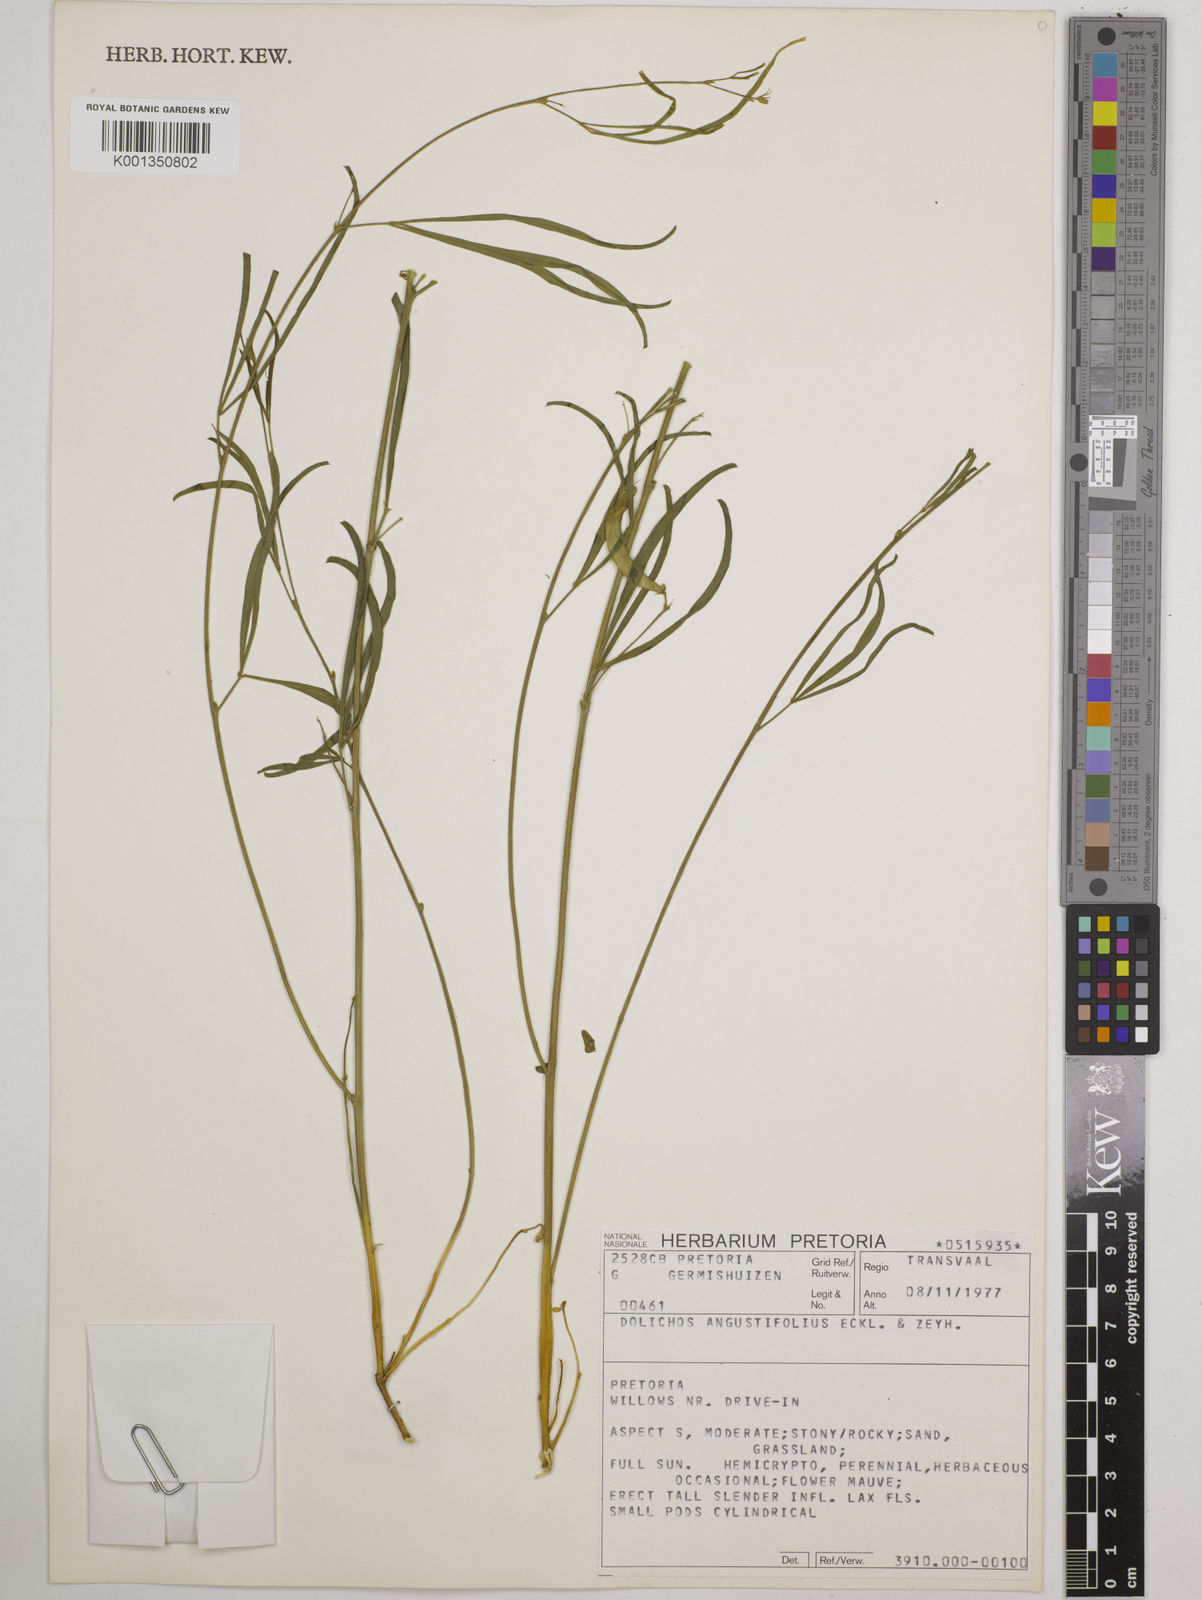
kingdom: Plantae
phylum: Tracheophyta
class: Magnoliopsida
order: Fabales
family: Fabaceae
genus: Dolichos
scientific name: Dolichos
